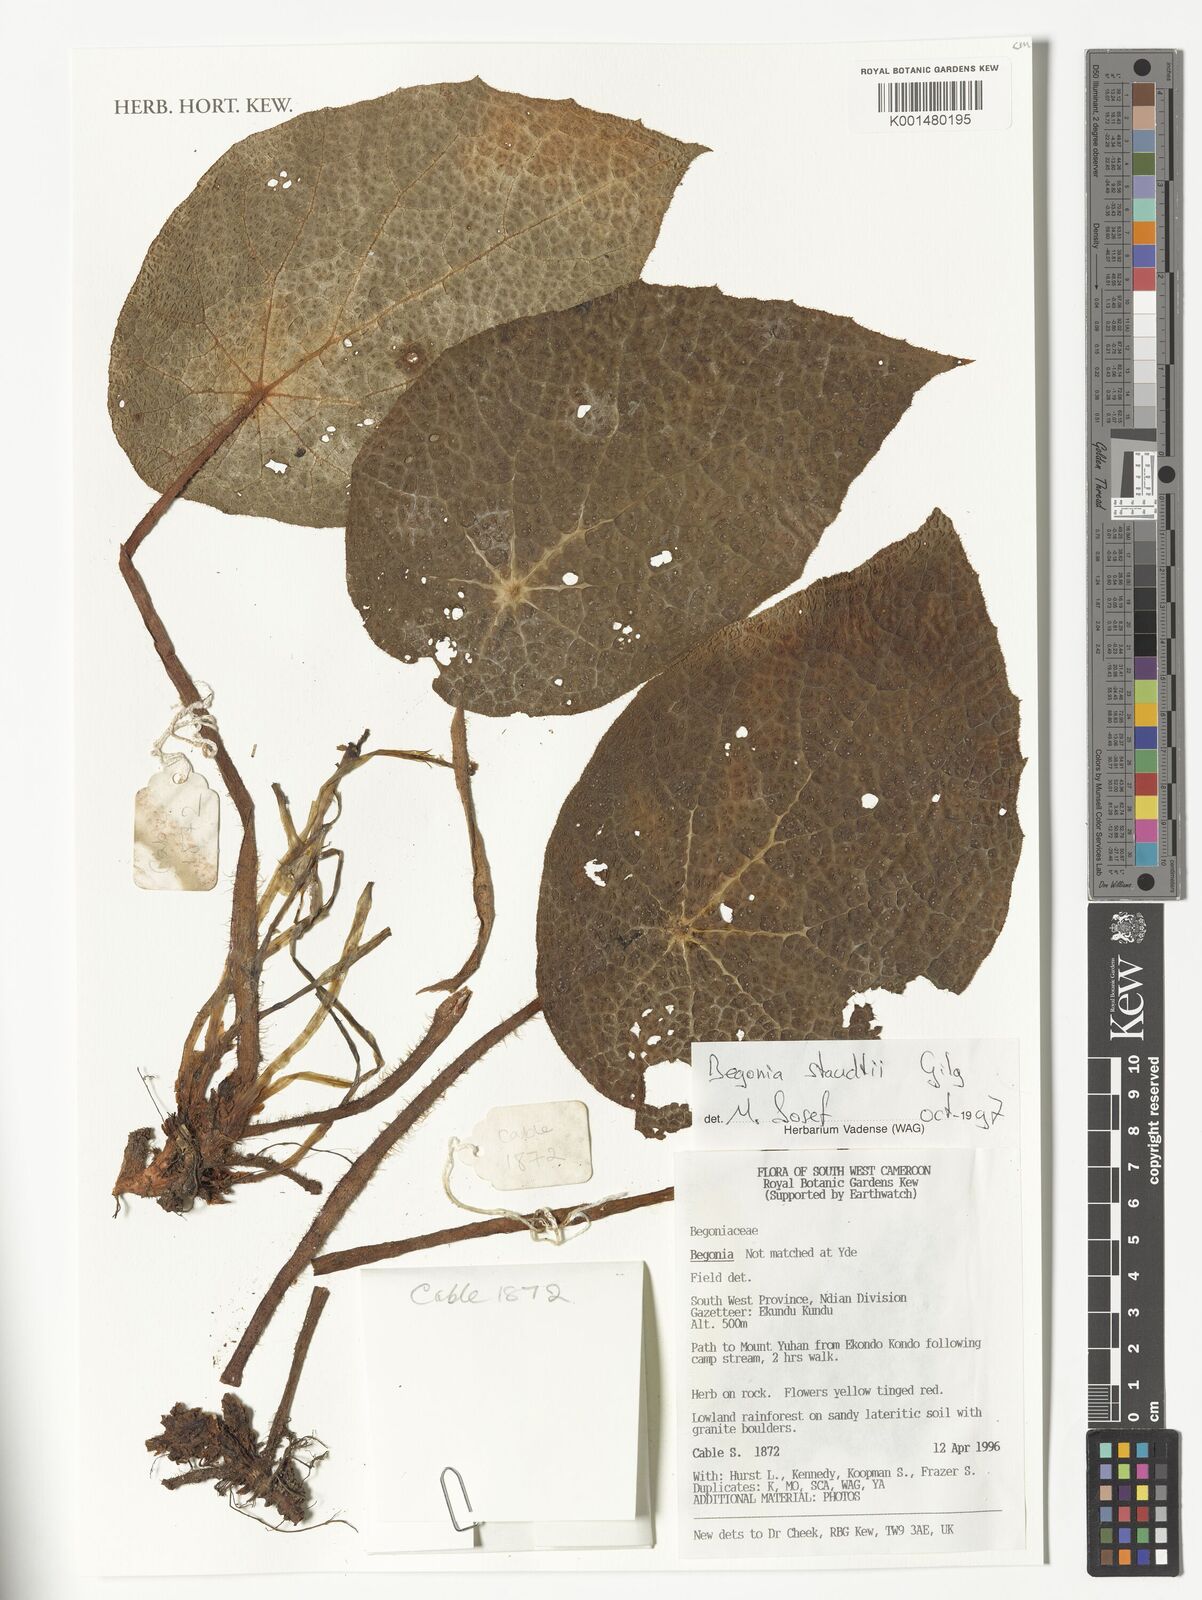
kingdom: Plantae
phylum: Tracheophyta
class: Magnoliopsida
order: Cucurbitales
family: Begoniaceae
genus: Begonia
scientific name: Begonia staudtii
